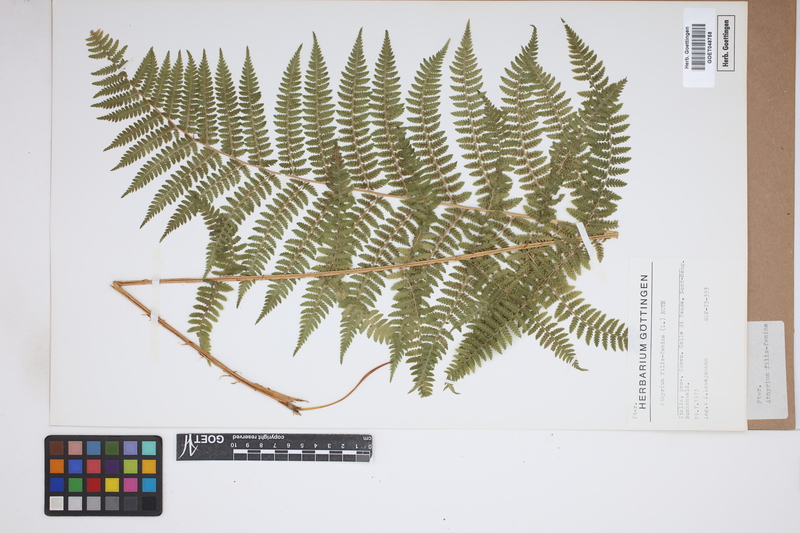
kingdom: Plantae
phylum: Tracheophyta
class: Polypodiopsida
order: Polypodiales
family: Athyriaceae
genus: Athyrium
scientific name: Athyrium filix-femina
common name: Lady fern
